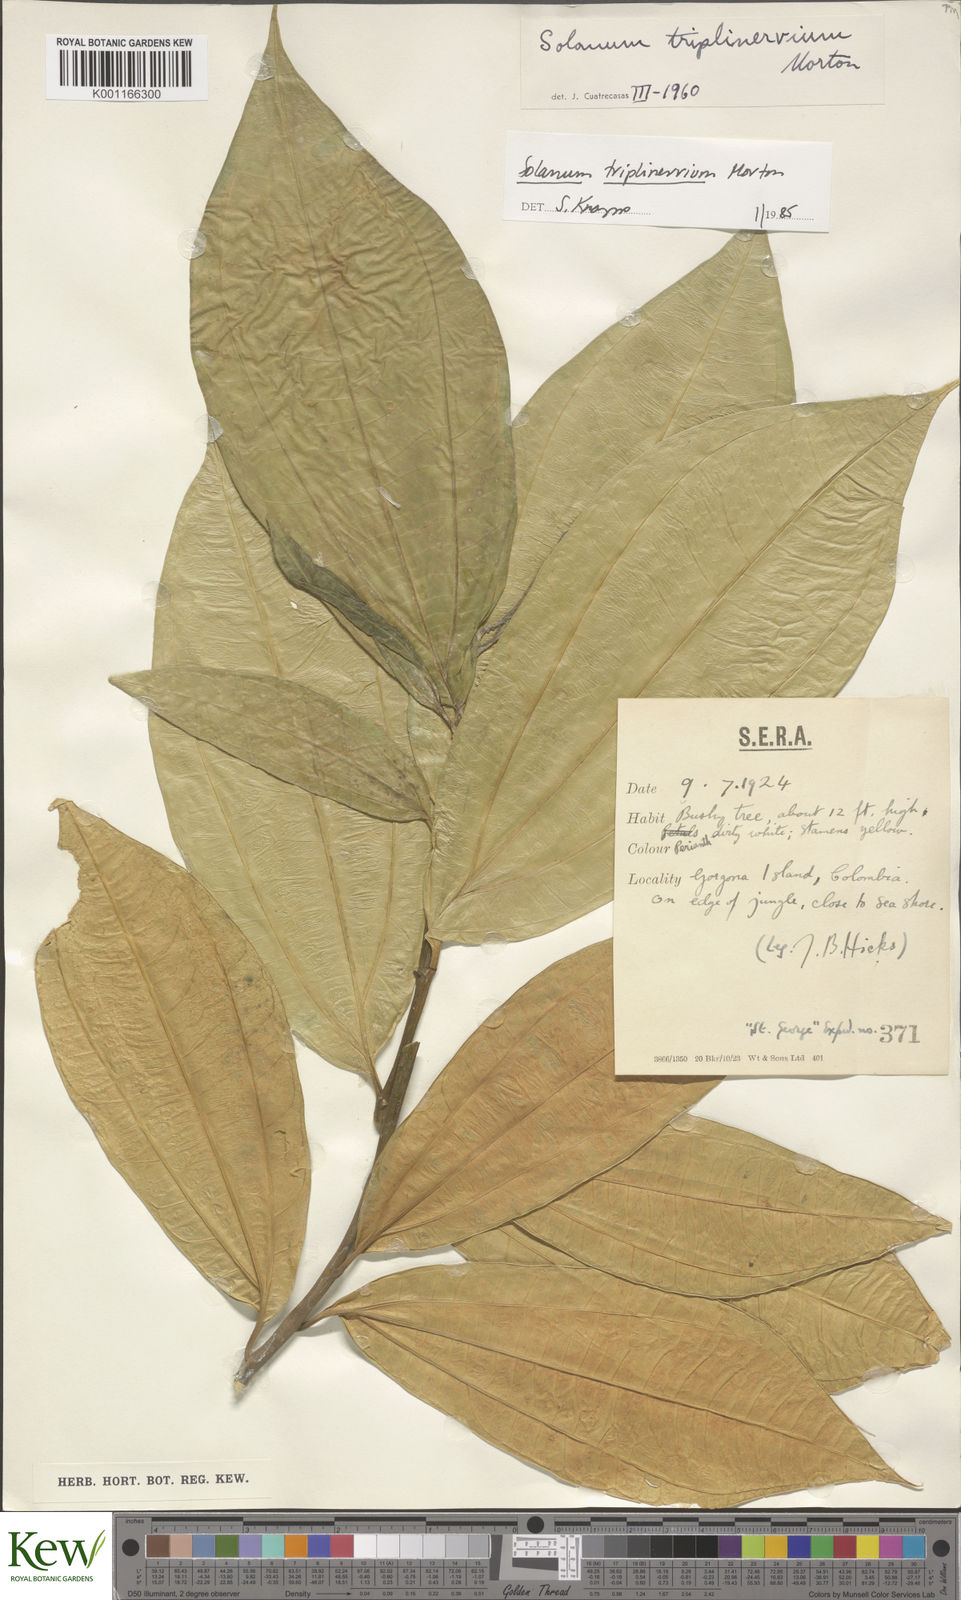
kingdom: Plantae
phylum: Tracheophyta
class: Magnoliopsida
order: Solanales
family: Solanaceae
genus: Solanum
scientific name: Solanum triplinervium
